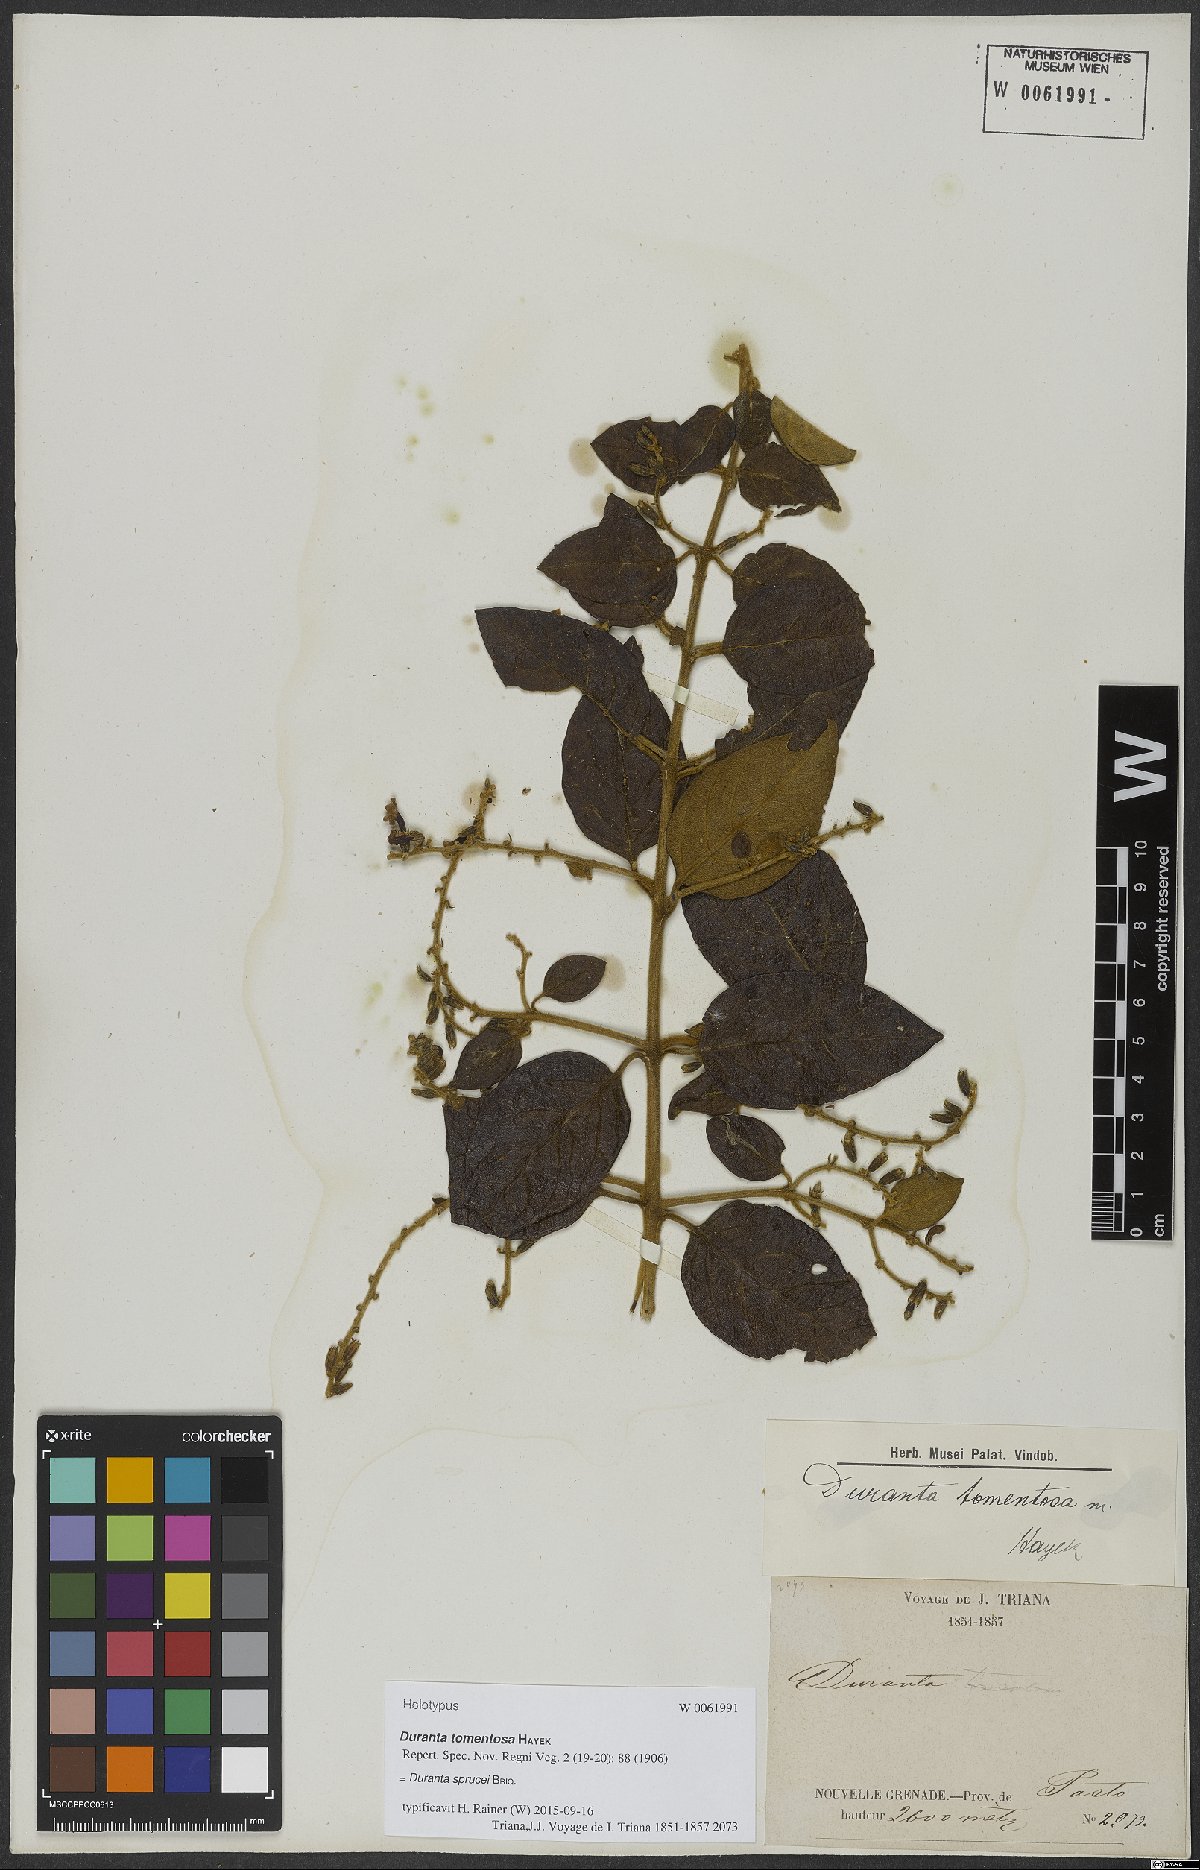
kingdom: Plantae
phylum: Tracheophyta
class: Magnoliopsida
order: Lamiales
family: Verbenaceae
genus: Duranta
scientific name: Duranta sprucei
